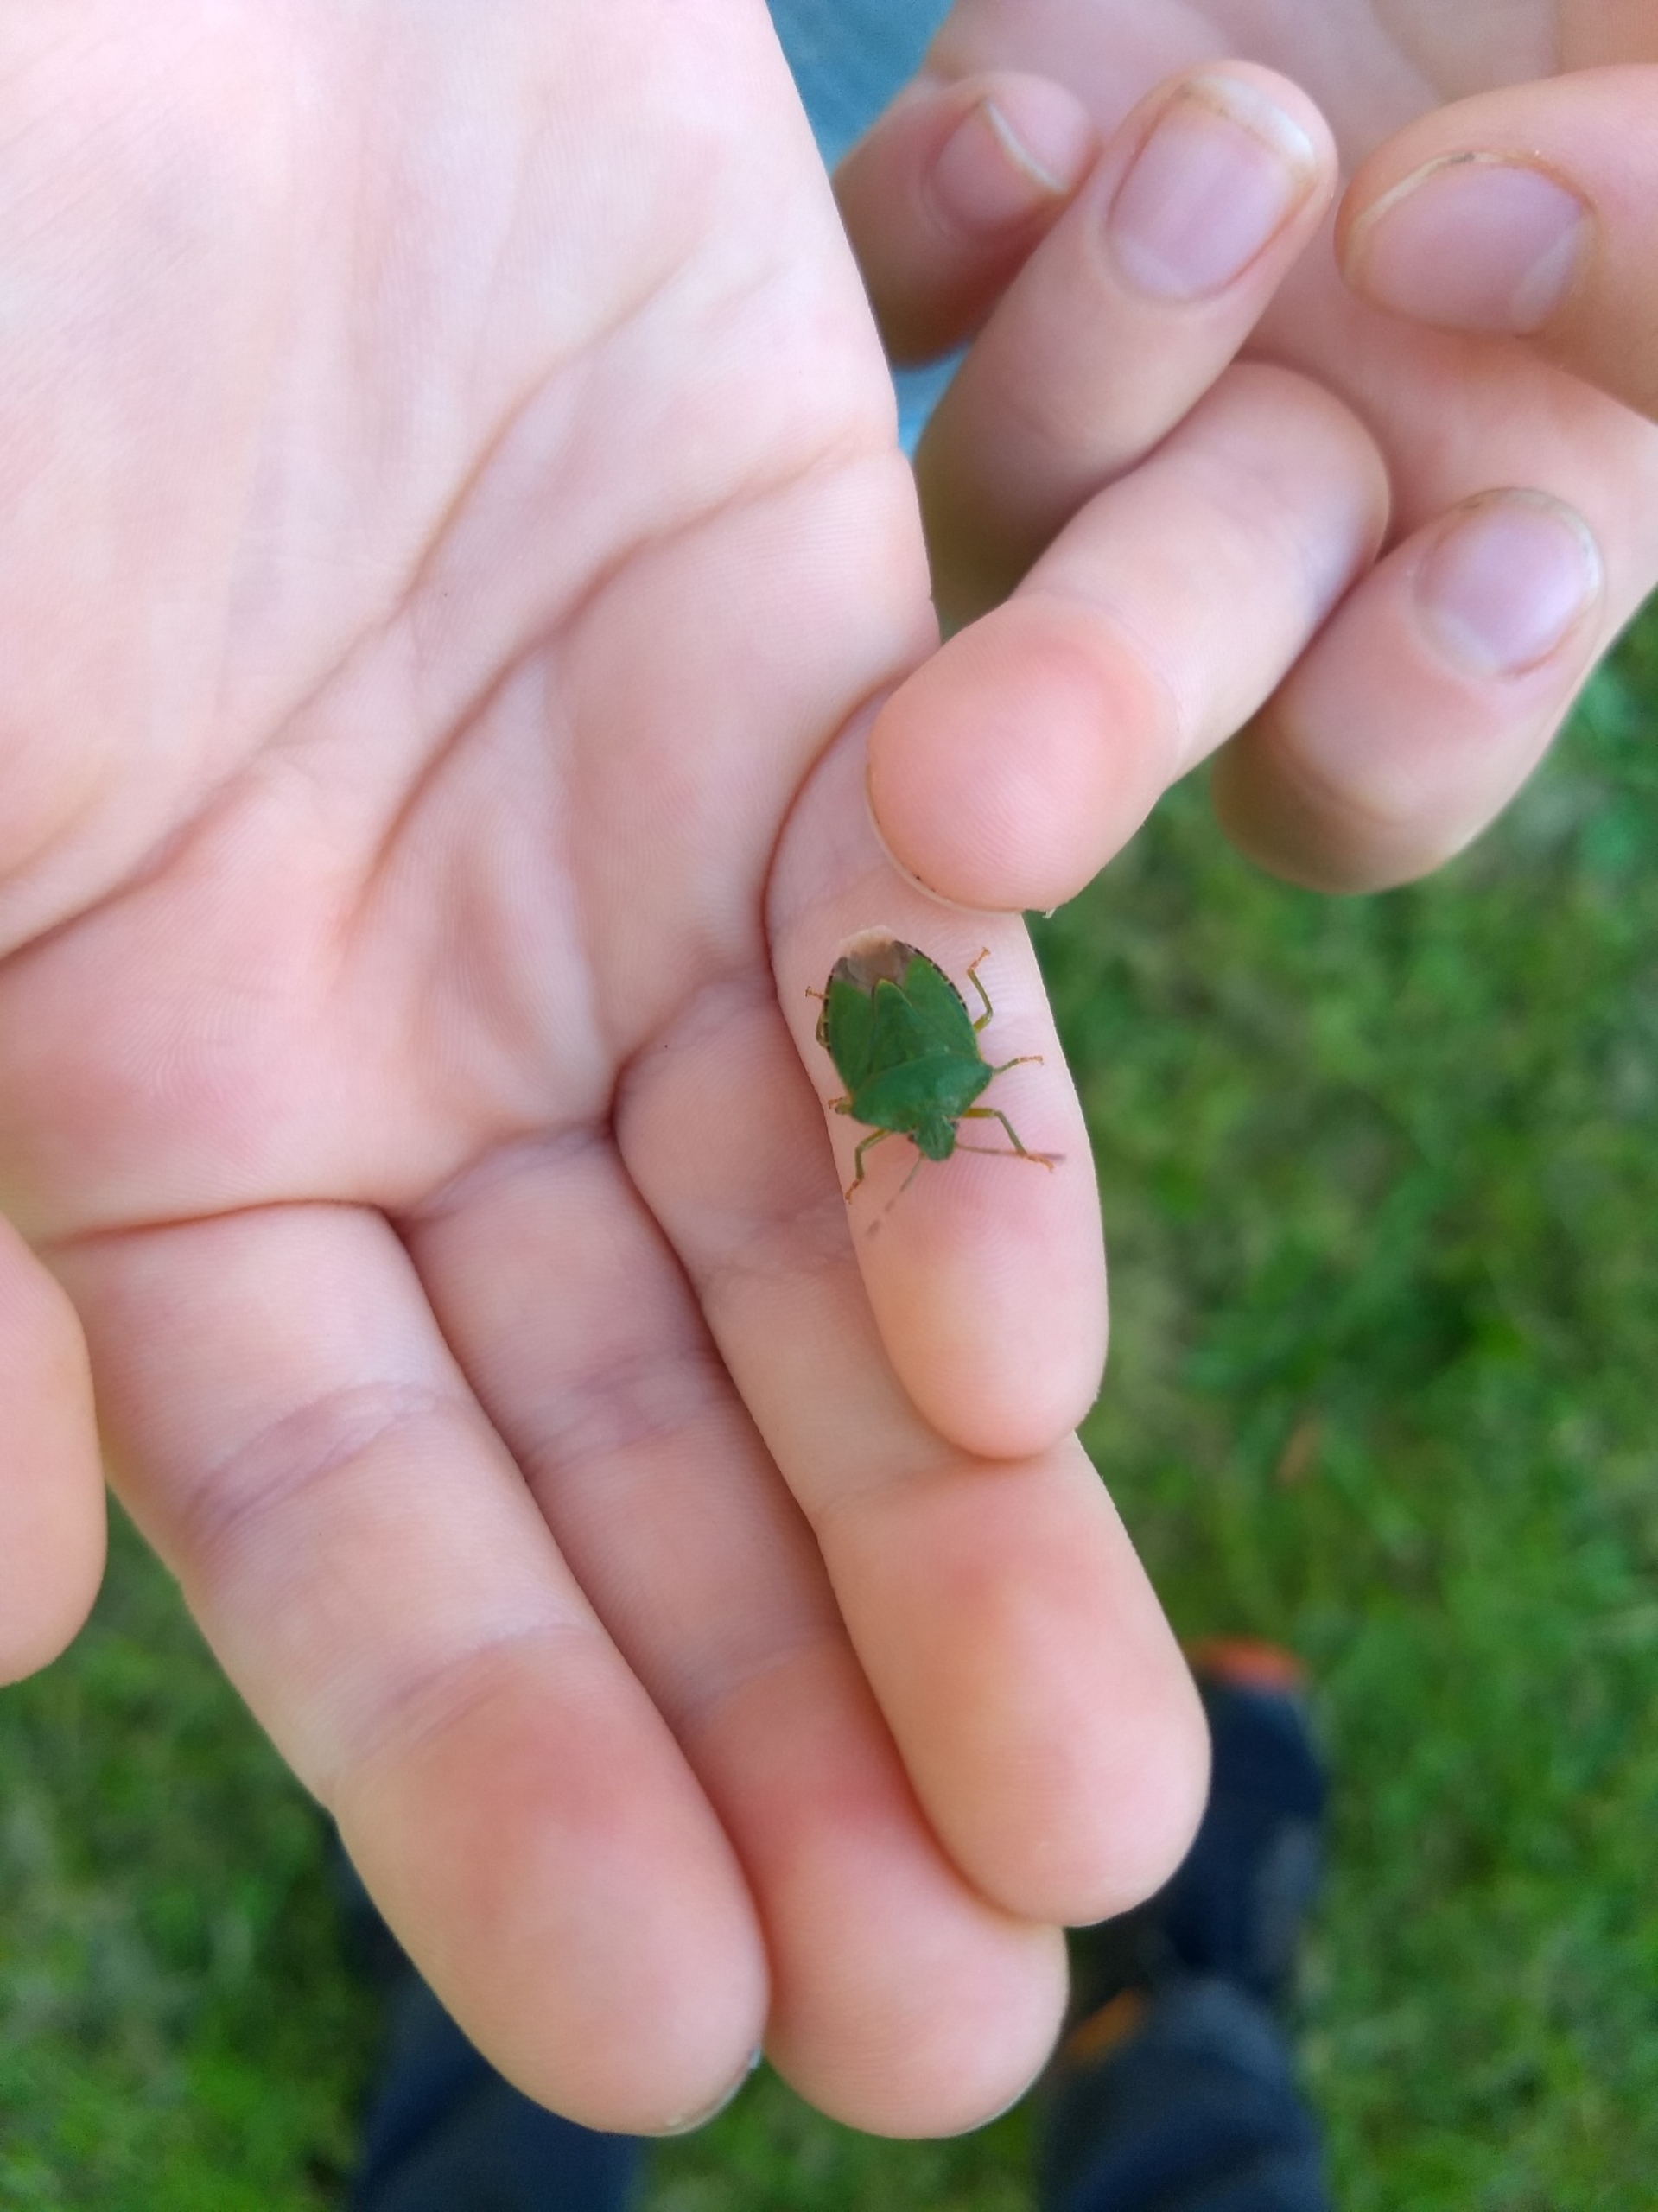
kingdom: Animalia
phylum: Arthropoda
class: Insecta
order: Hemiptera
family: Pentatomidae
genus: Palomena
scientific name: Palomena prasina
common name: Grøn bredtæge
